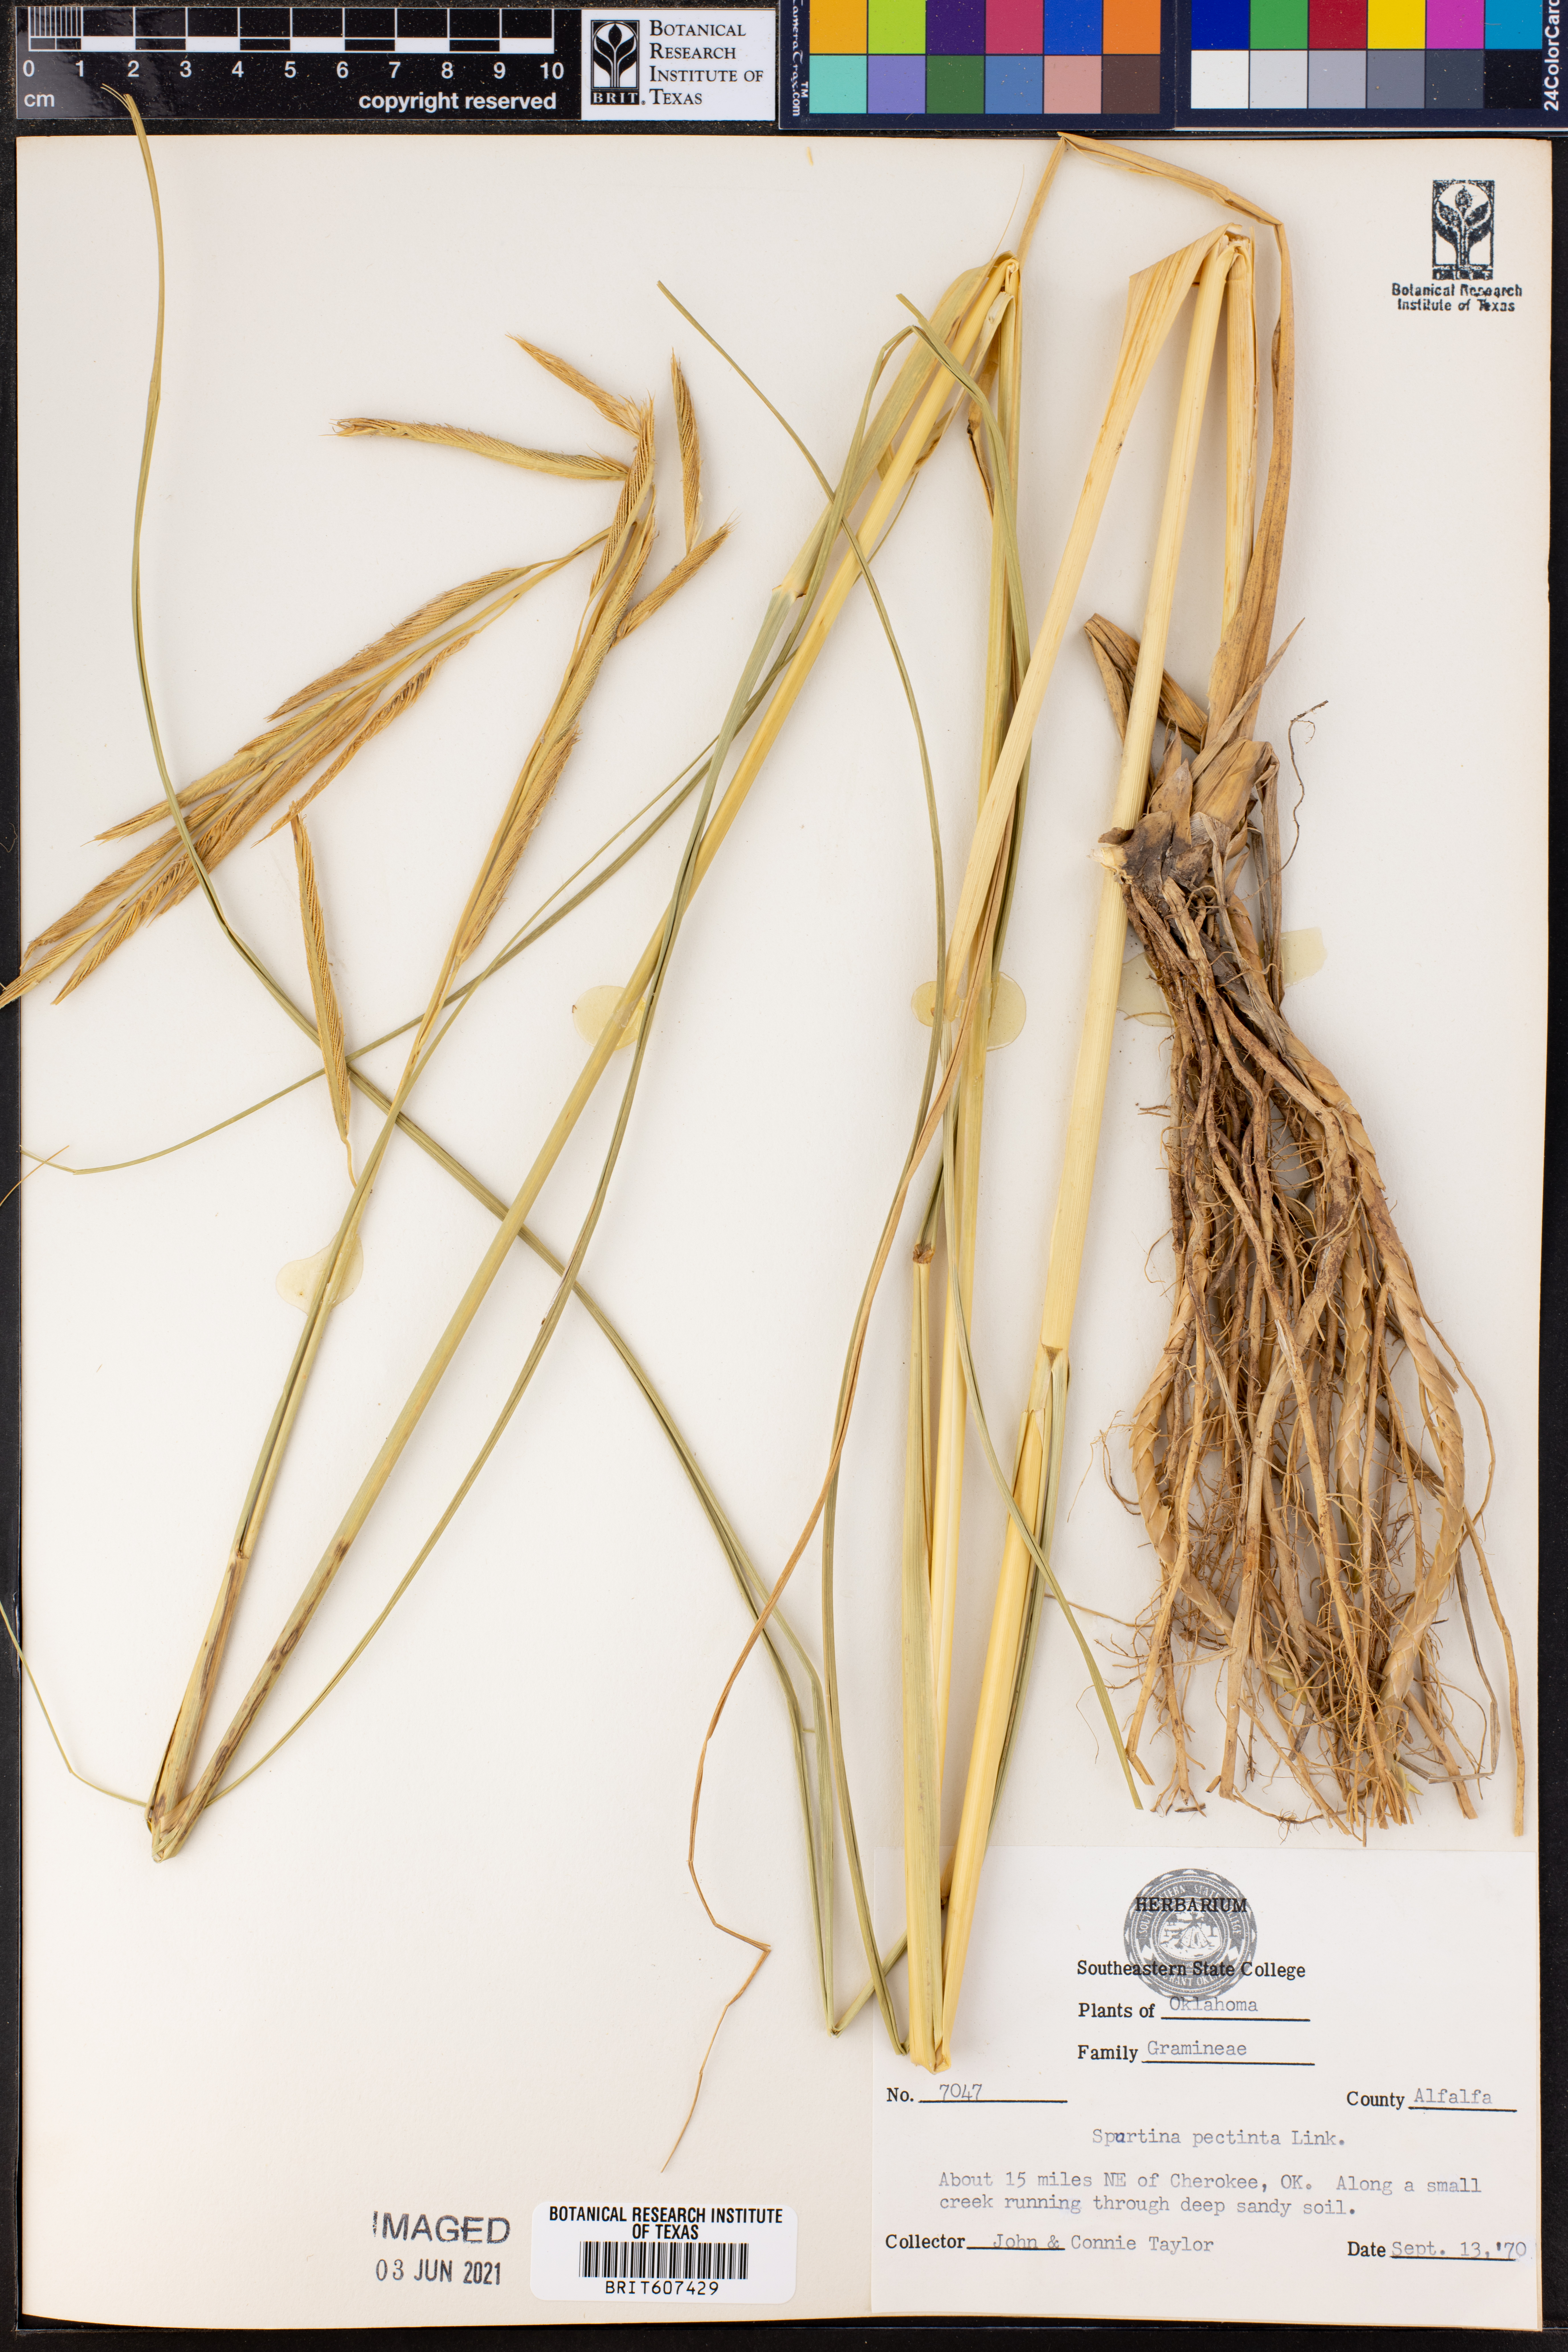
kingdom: Plantae
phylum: Tracheophyta
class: Liliopsida
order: Poales
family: Poaceae
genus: Sporobolus
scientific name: Sporobolus michauxianus
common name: Freshwater cordgrass
